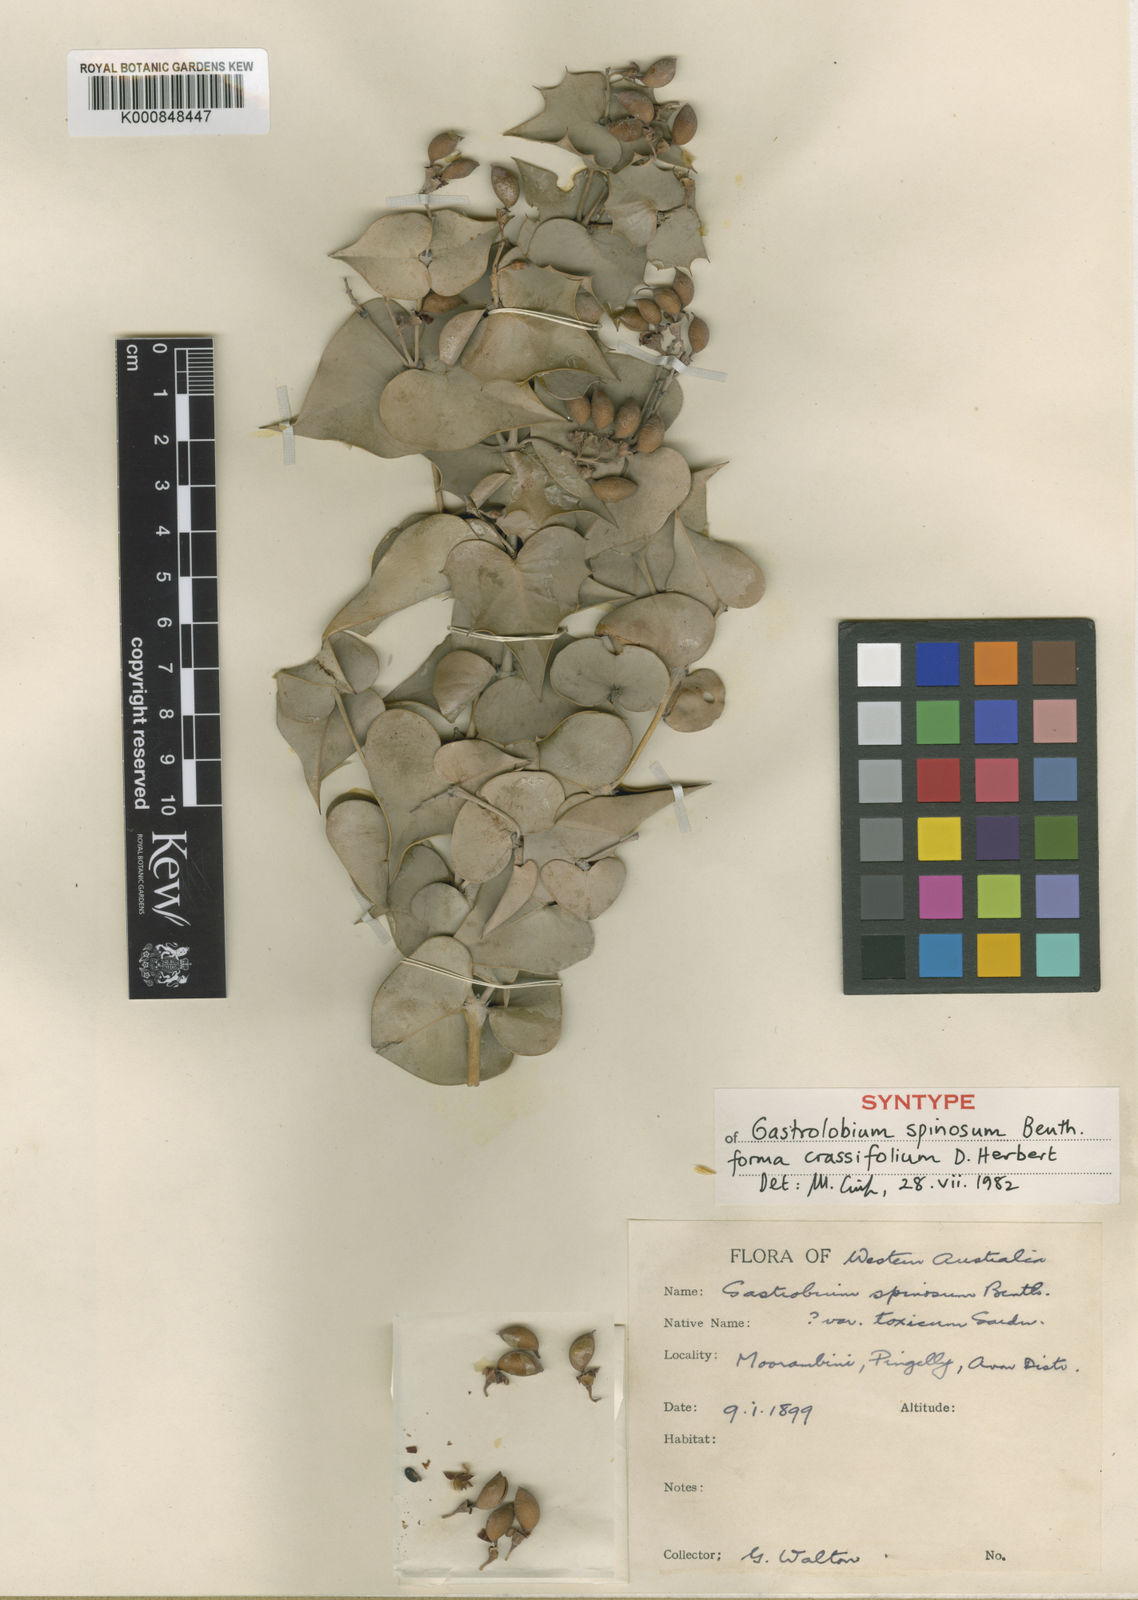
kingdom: Plantae
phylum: Tracheophyta
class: Magnoliopsida
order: Fabales
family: Fabaceae
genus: Gastrolobium
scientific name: Gastrolobium spinosum
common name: Prickly poison
